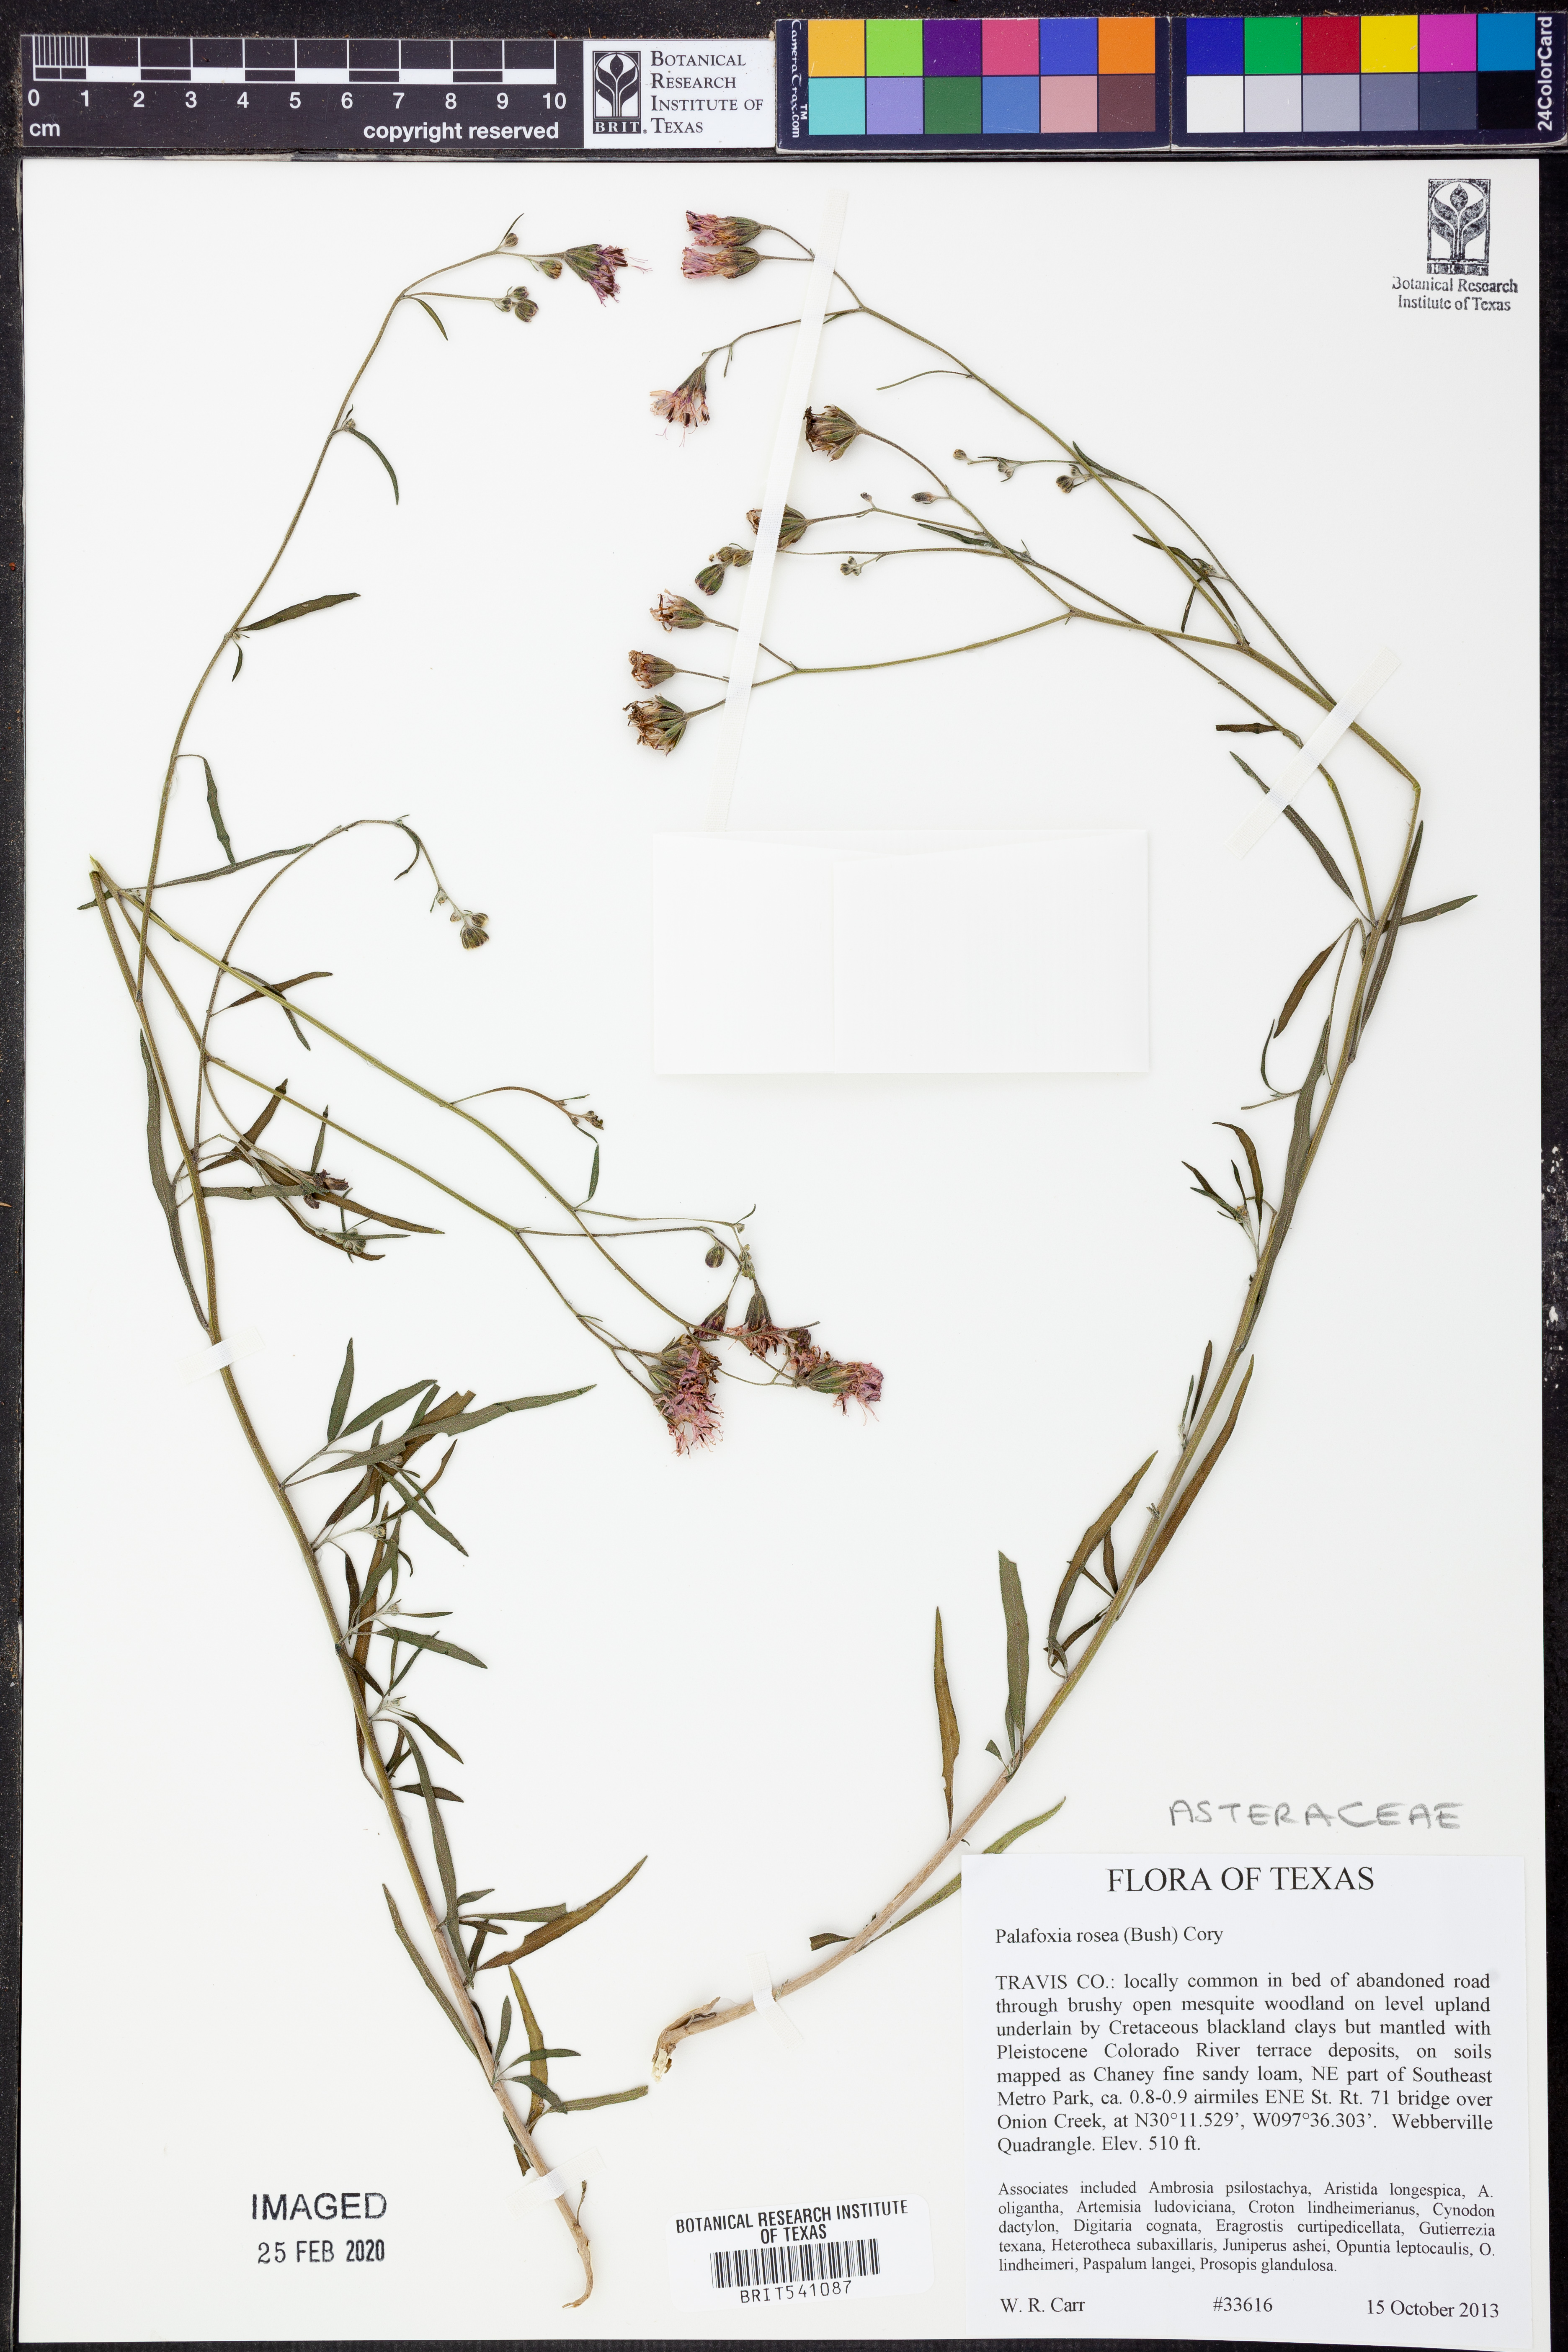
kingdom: Plantae
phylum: Tracheophyta
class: Magnoliopsida
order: Asterales
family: Asteraceae
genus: Palafoxia
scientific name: Palafoxia rosea
